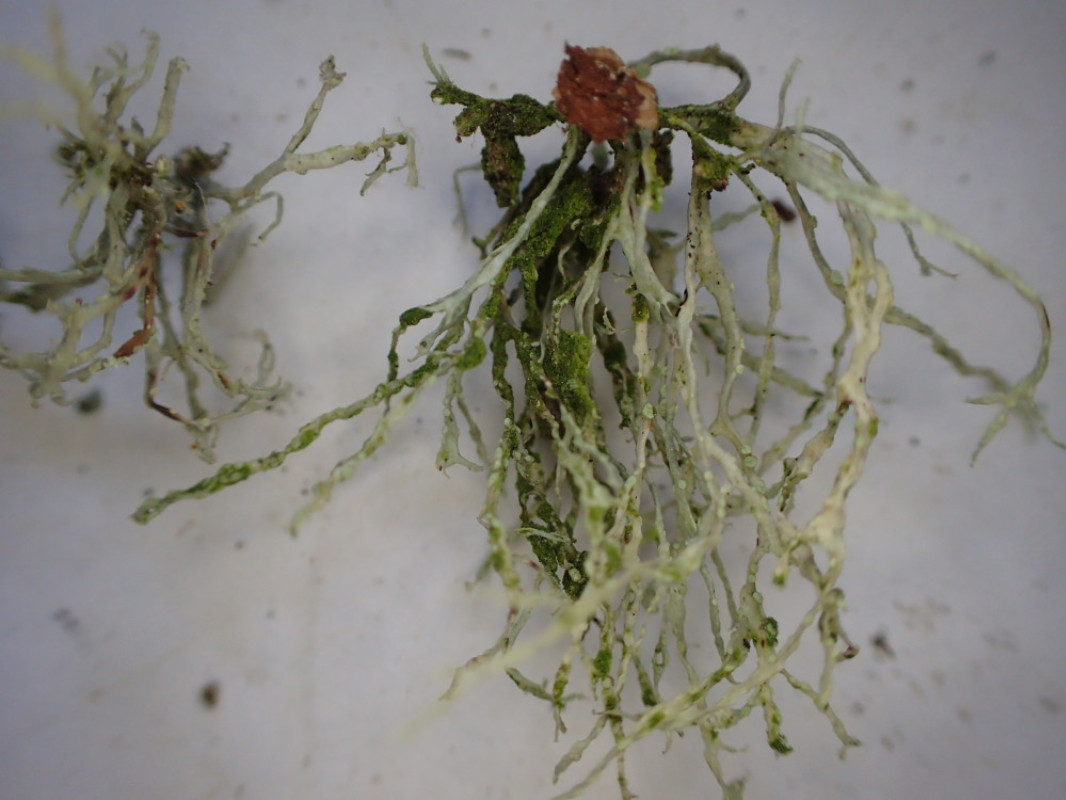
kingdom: Fungi
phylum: Ascomycota
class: Lecanoromycetes
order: Lecanorales
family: Ramalinaceae
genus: Ramalina
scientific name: Ramalina farinacea
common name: melet grenlav
